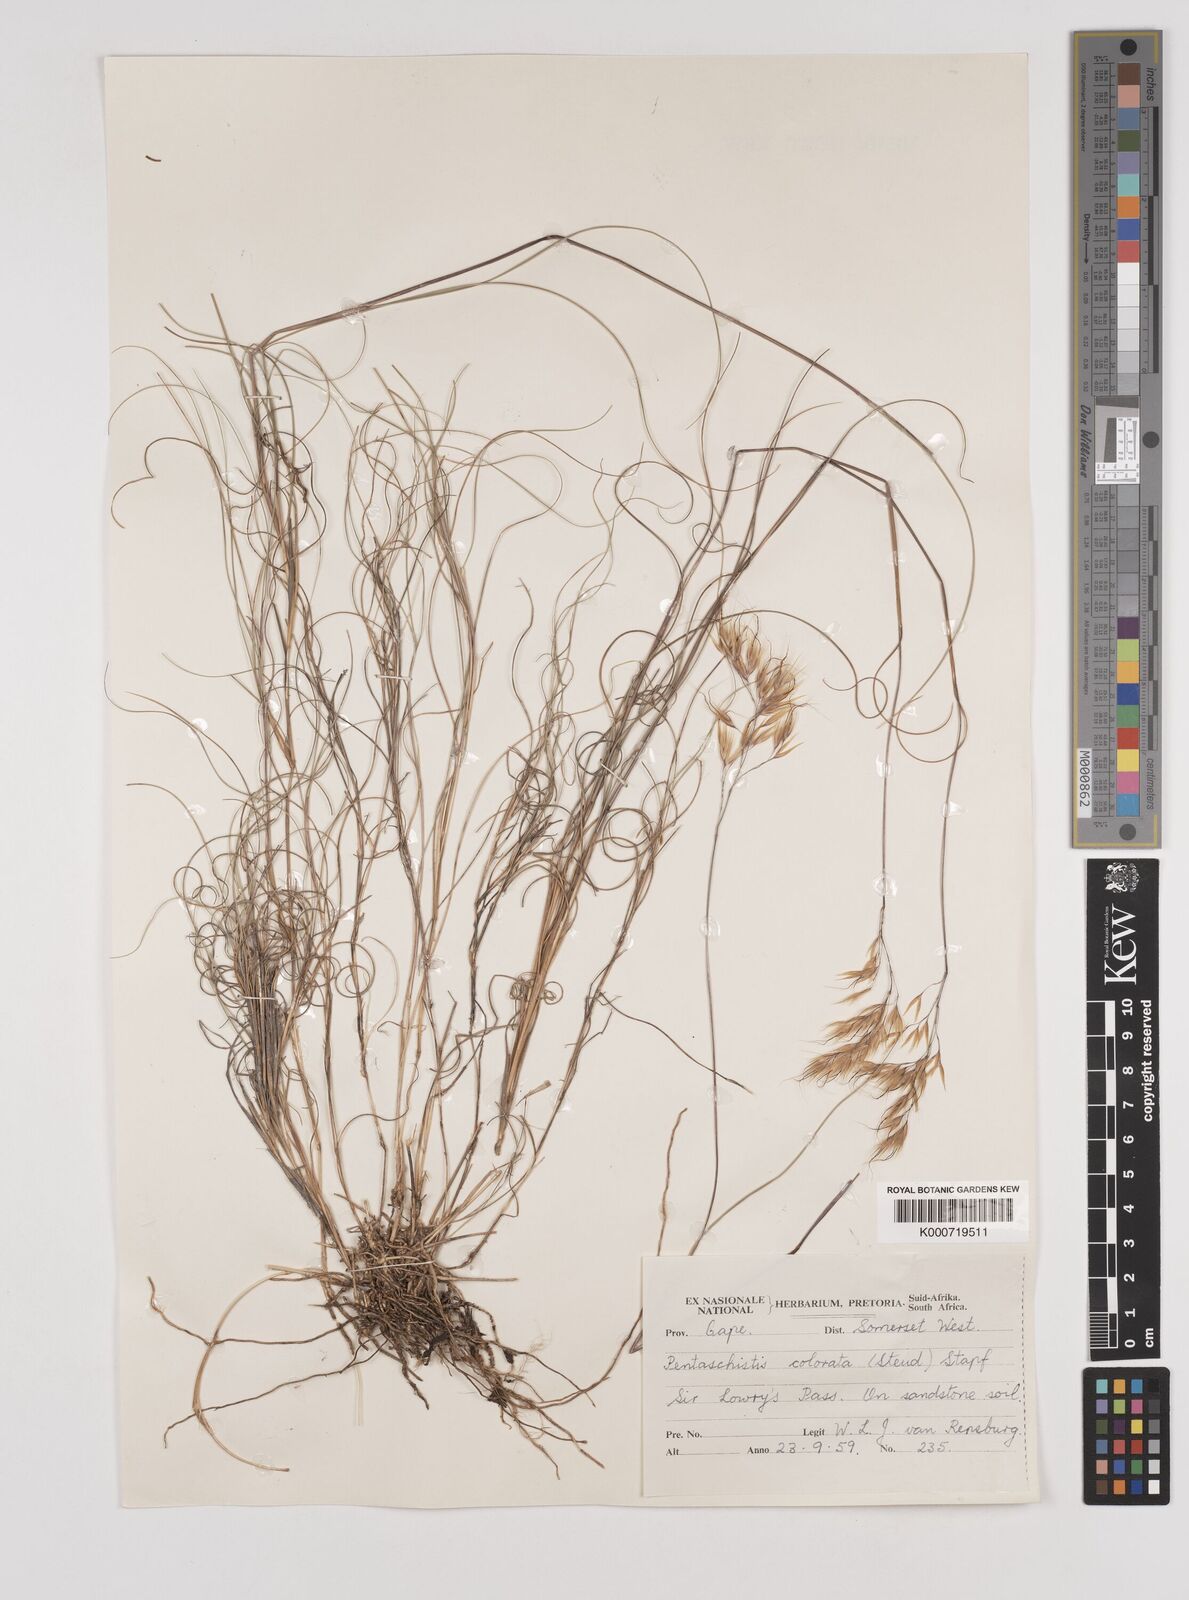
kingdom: Plantae
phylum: Tracheophyta
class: Liliopsida
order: Poales
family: Poaceae
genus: Pentameris
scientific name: Pentameris colorata
